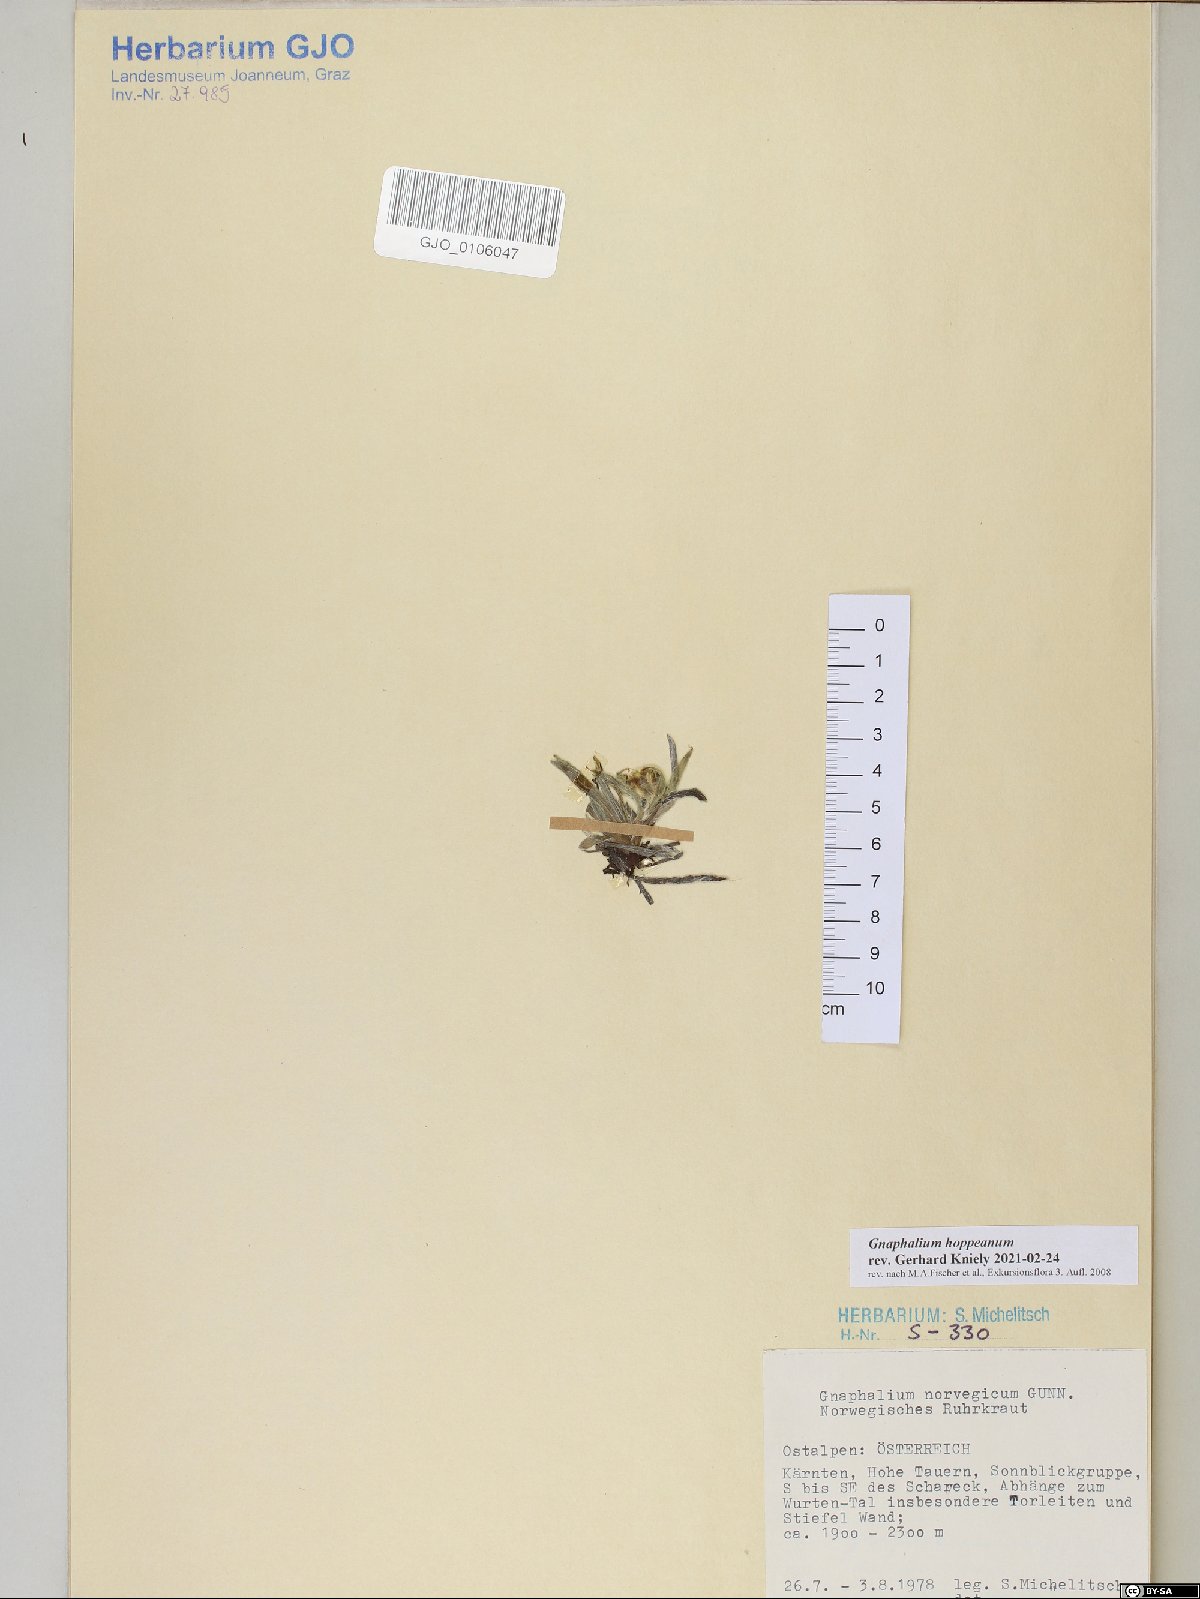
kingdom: Plantae
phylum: Tracheophyta
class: Magnoliopsida
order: Asterales
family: Asteraceae
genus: Omalotheca
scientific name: Omalotheca hoppeana
